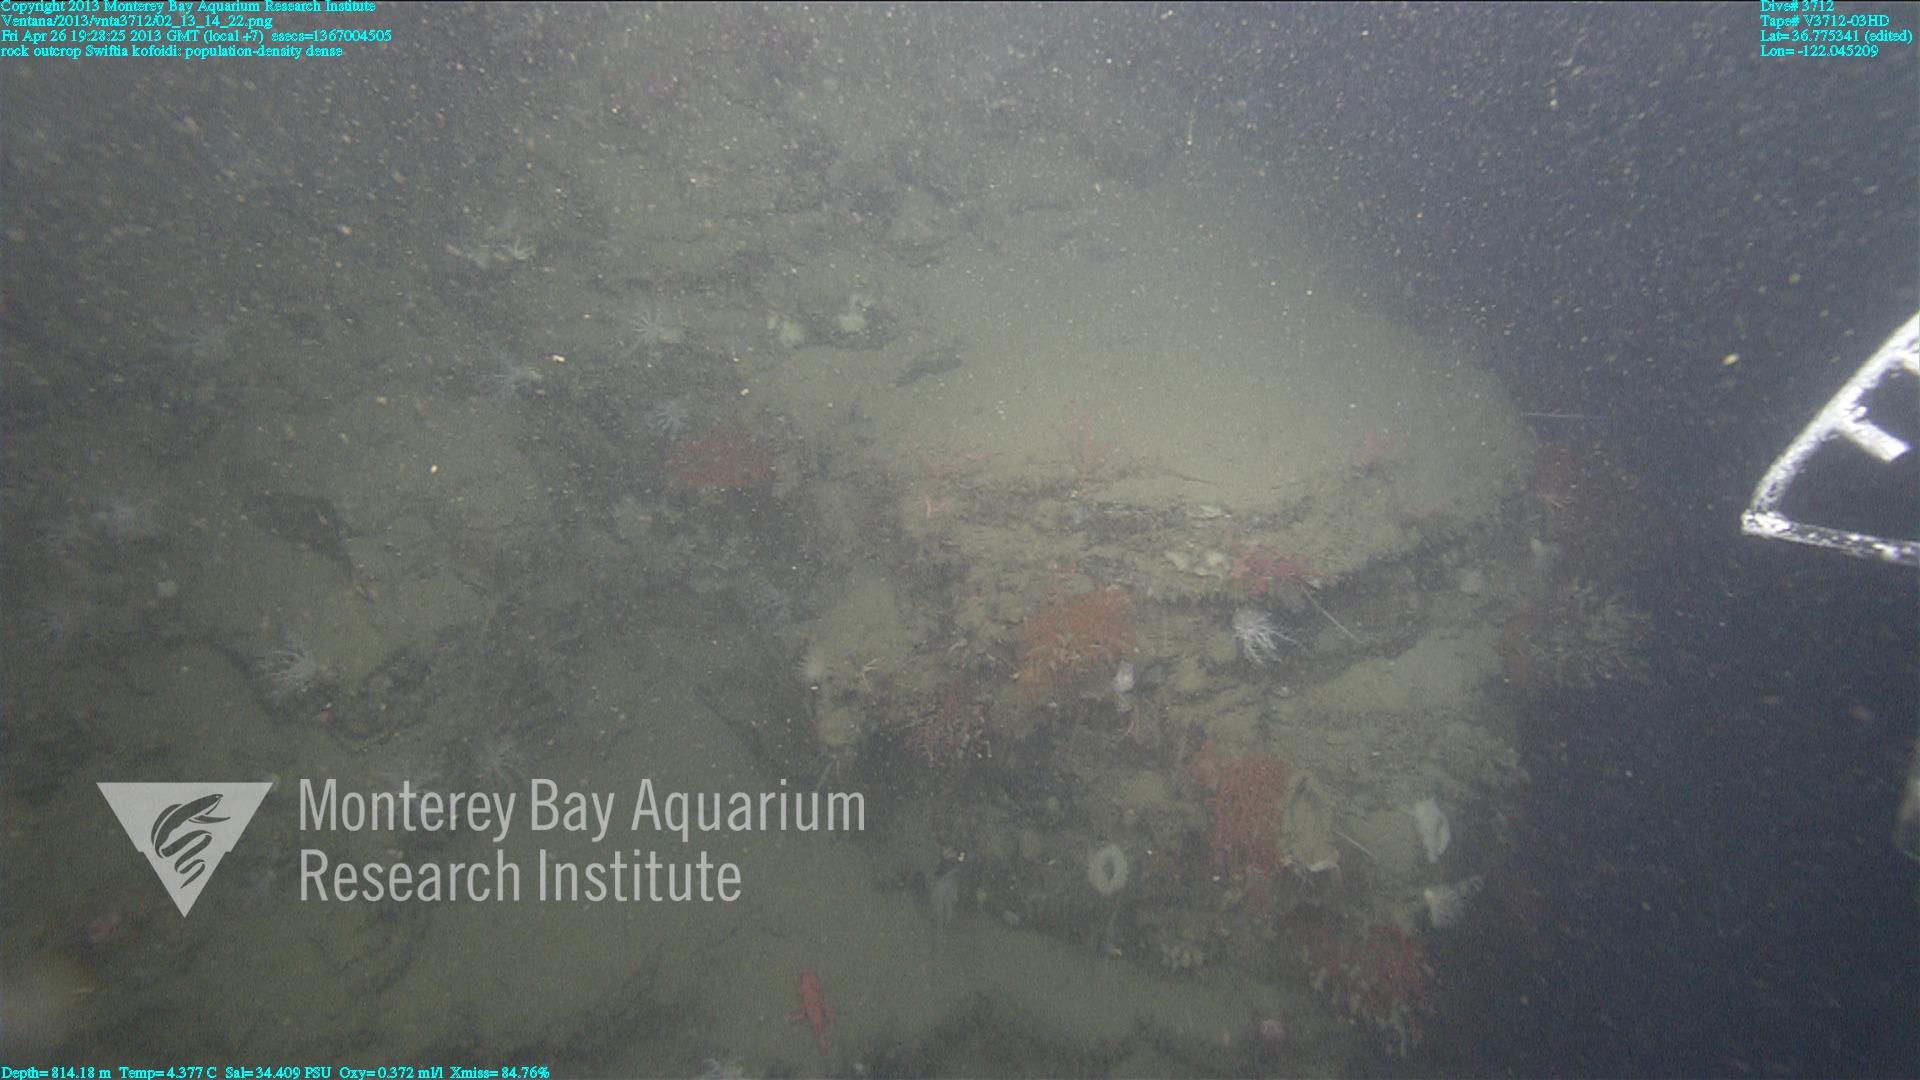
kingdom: Animalia
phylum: Cnidaria
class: Anthozoa
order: Malacalcyonacea
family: Gorgoniidae
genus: Callistephanus
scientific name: Callistephanus kofoidi
